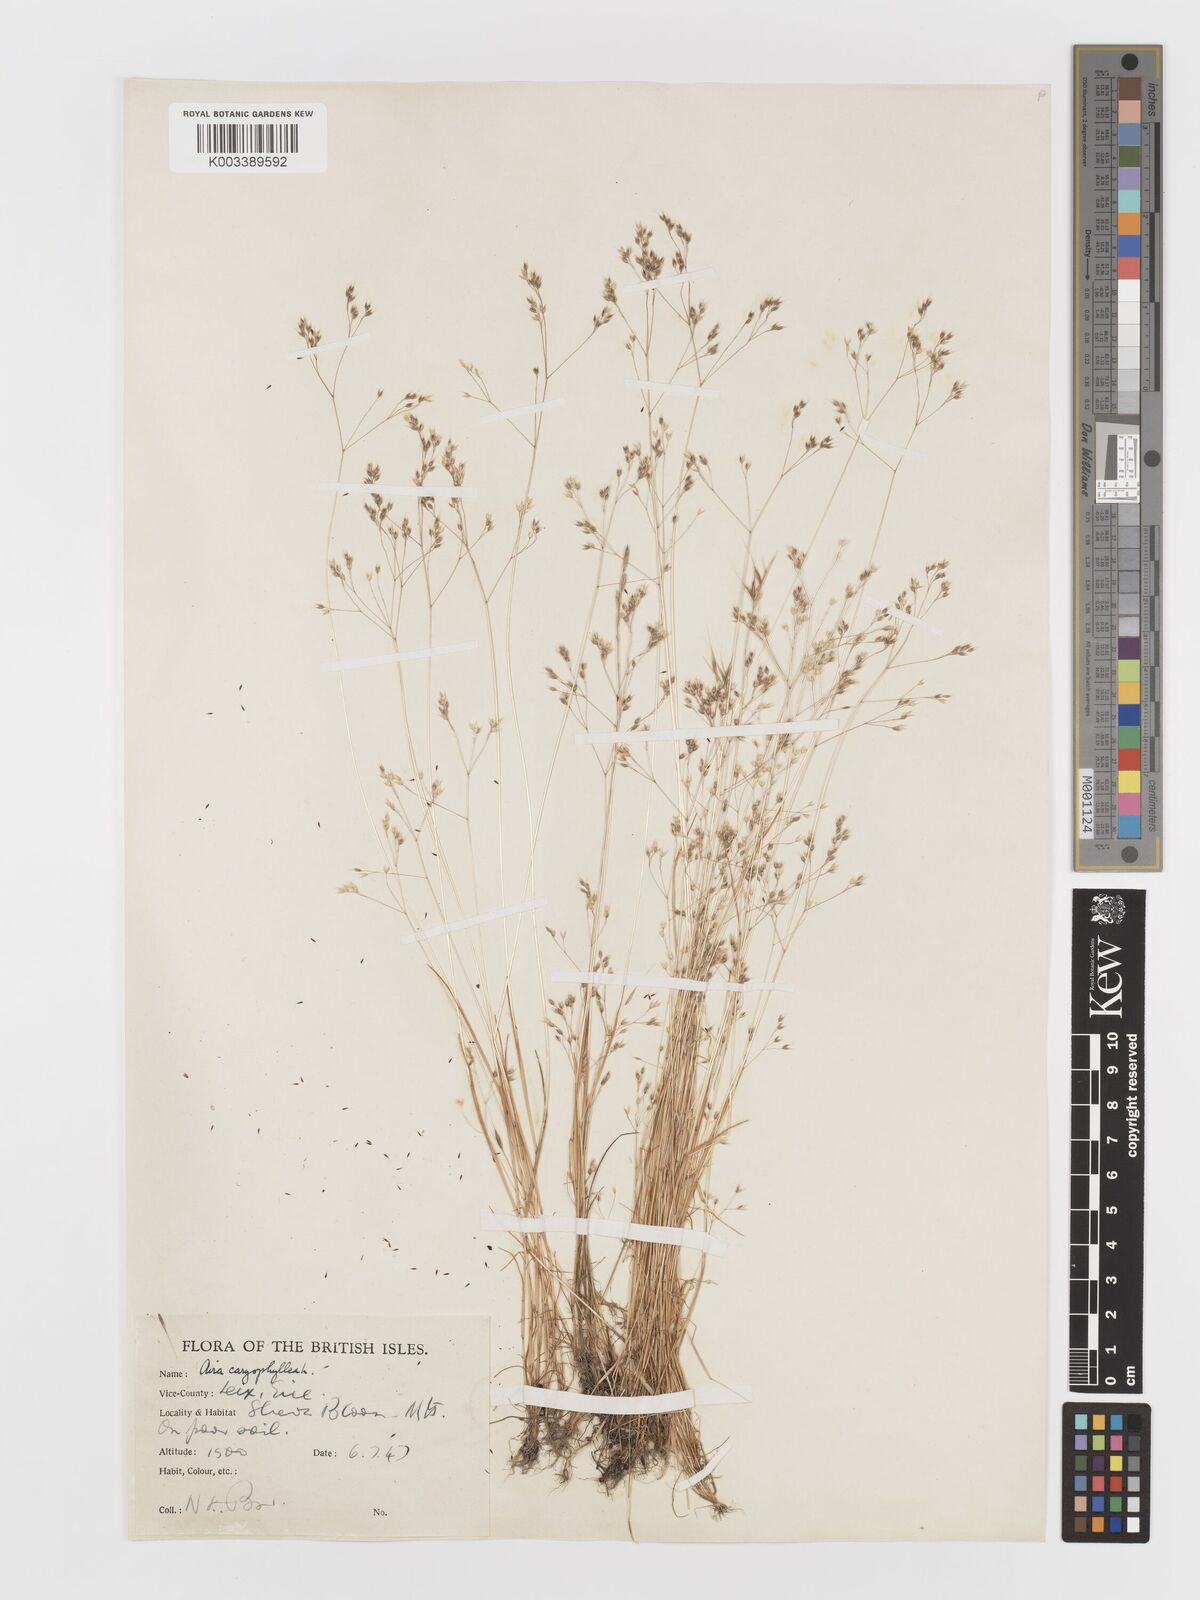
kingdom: Plantae
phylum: Tracheophyta
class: Liliopsida
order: Poales
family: Poaceae
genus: Aira
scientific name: Aira caryophyllea
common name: Silver hairgrass
